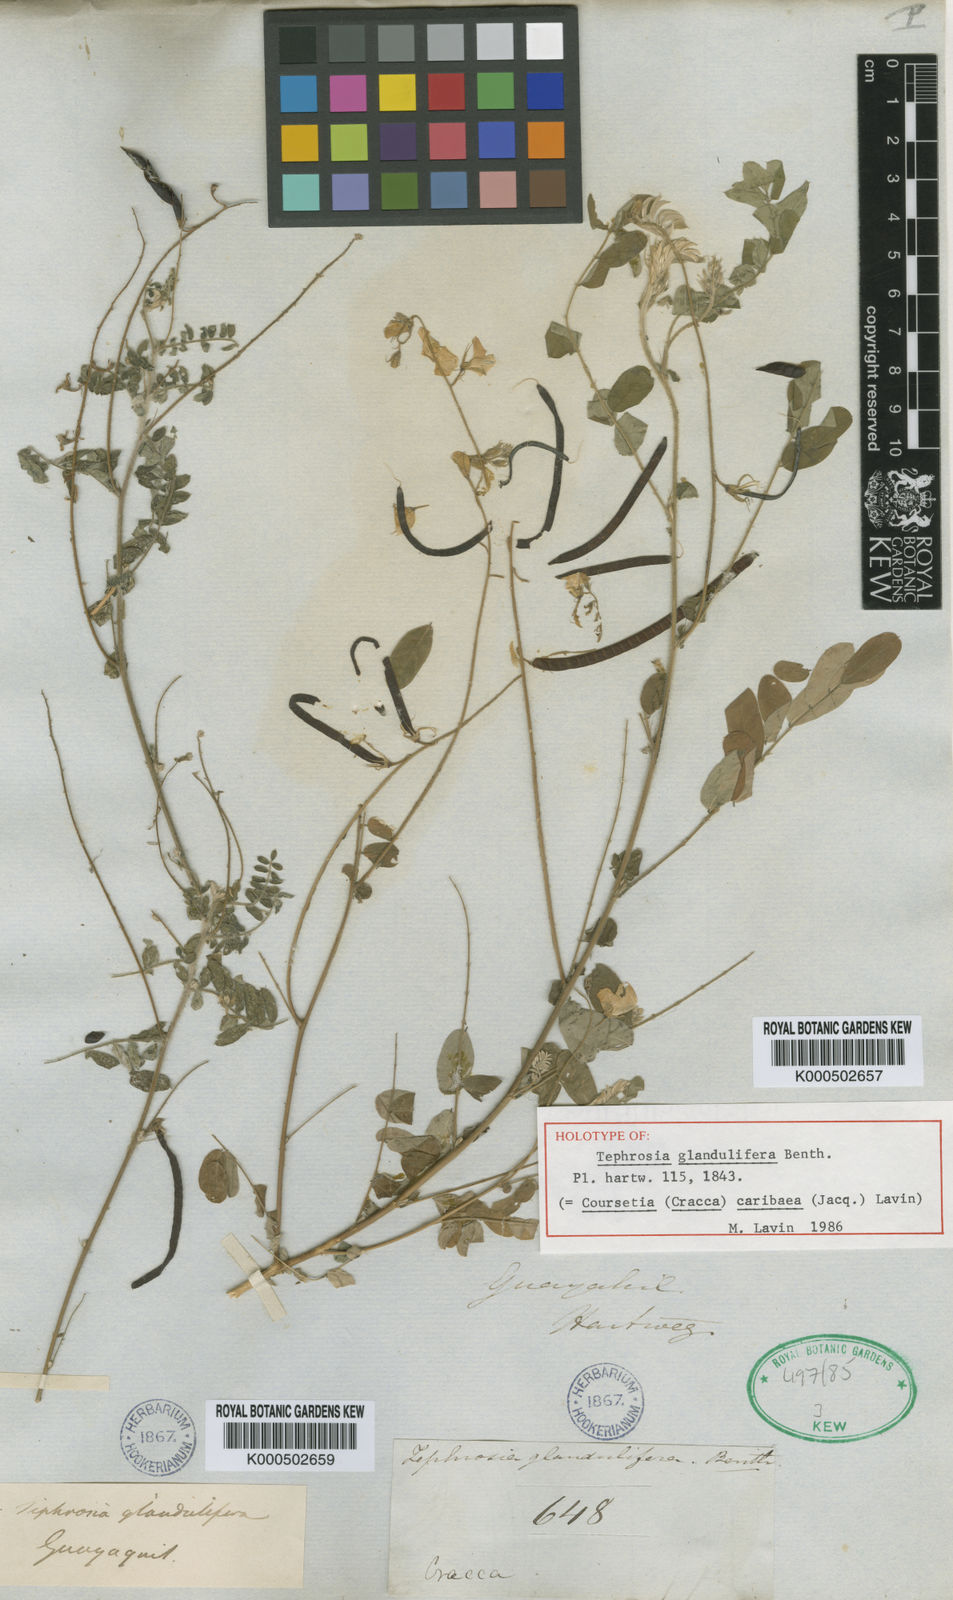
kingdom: Plantae
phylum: Tracheophyta
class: Magnoliopsida
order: Fabales
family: Fabaceae
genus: Coursetia
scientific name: Coursetia caribaea
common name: Anil falso
